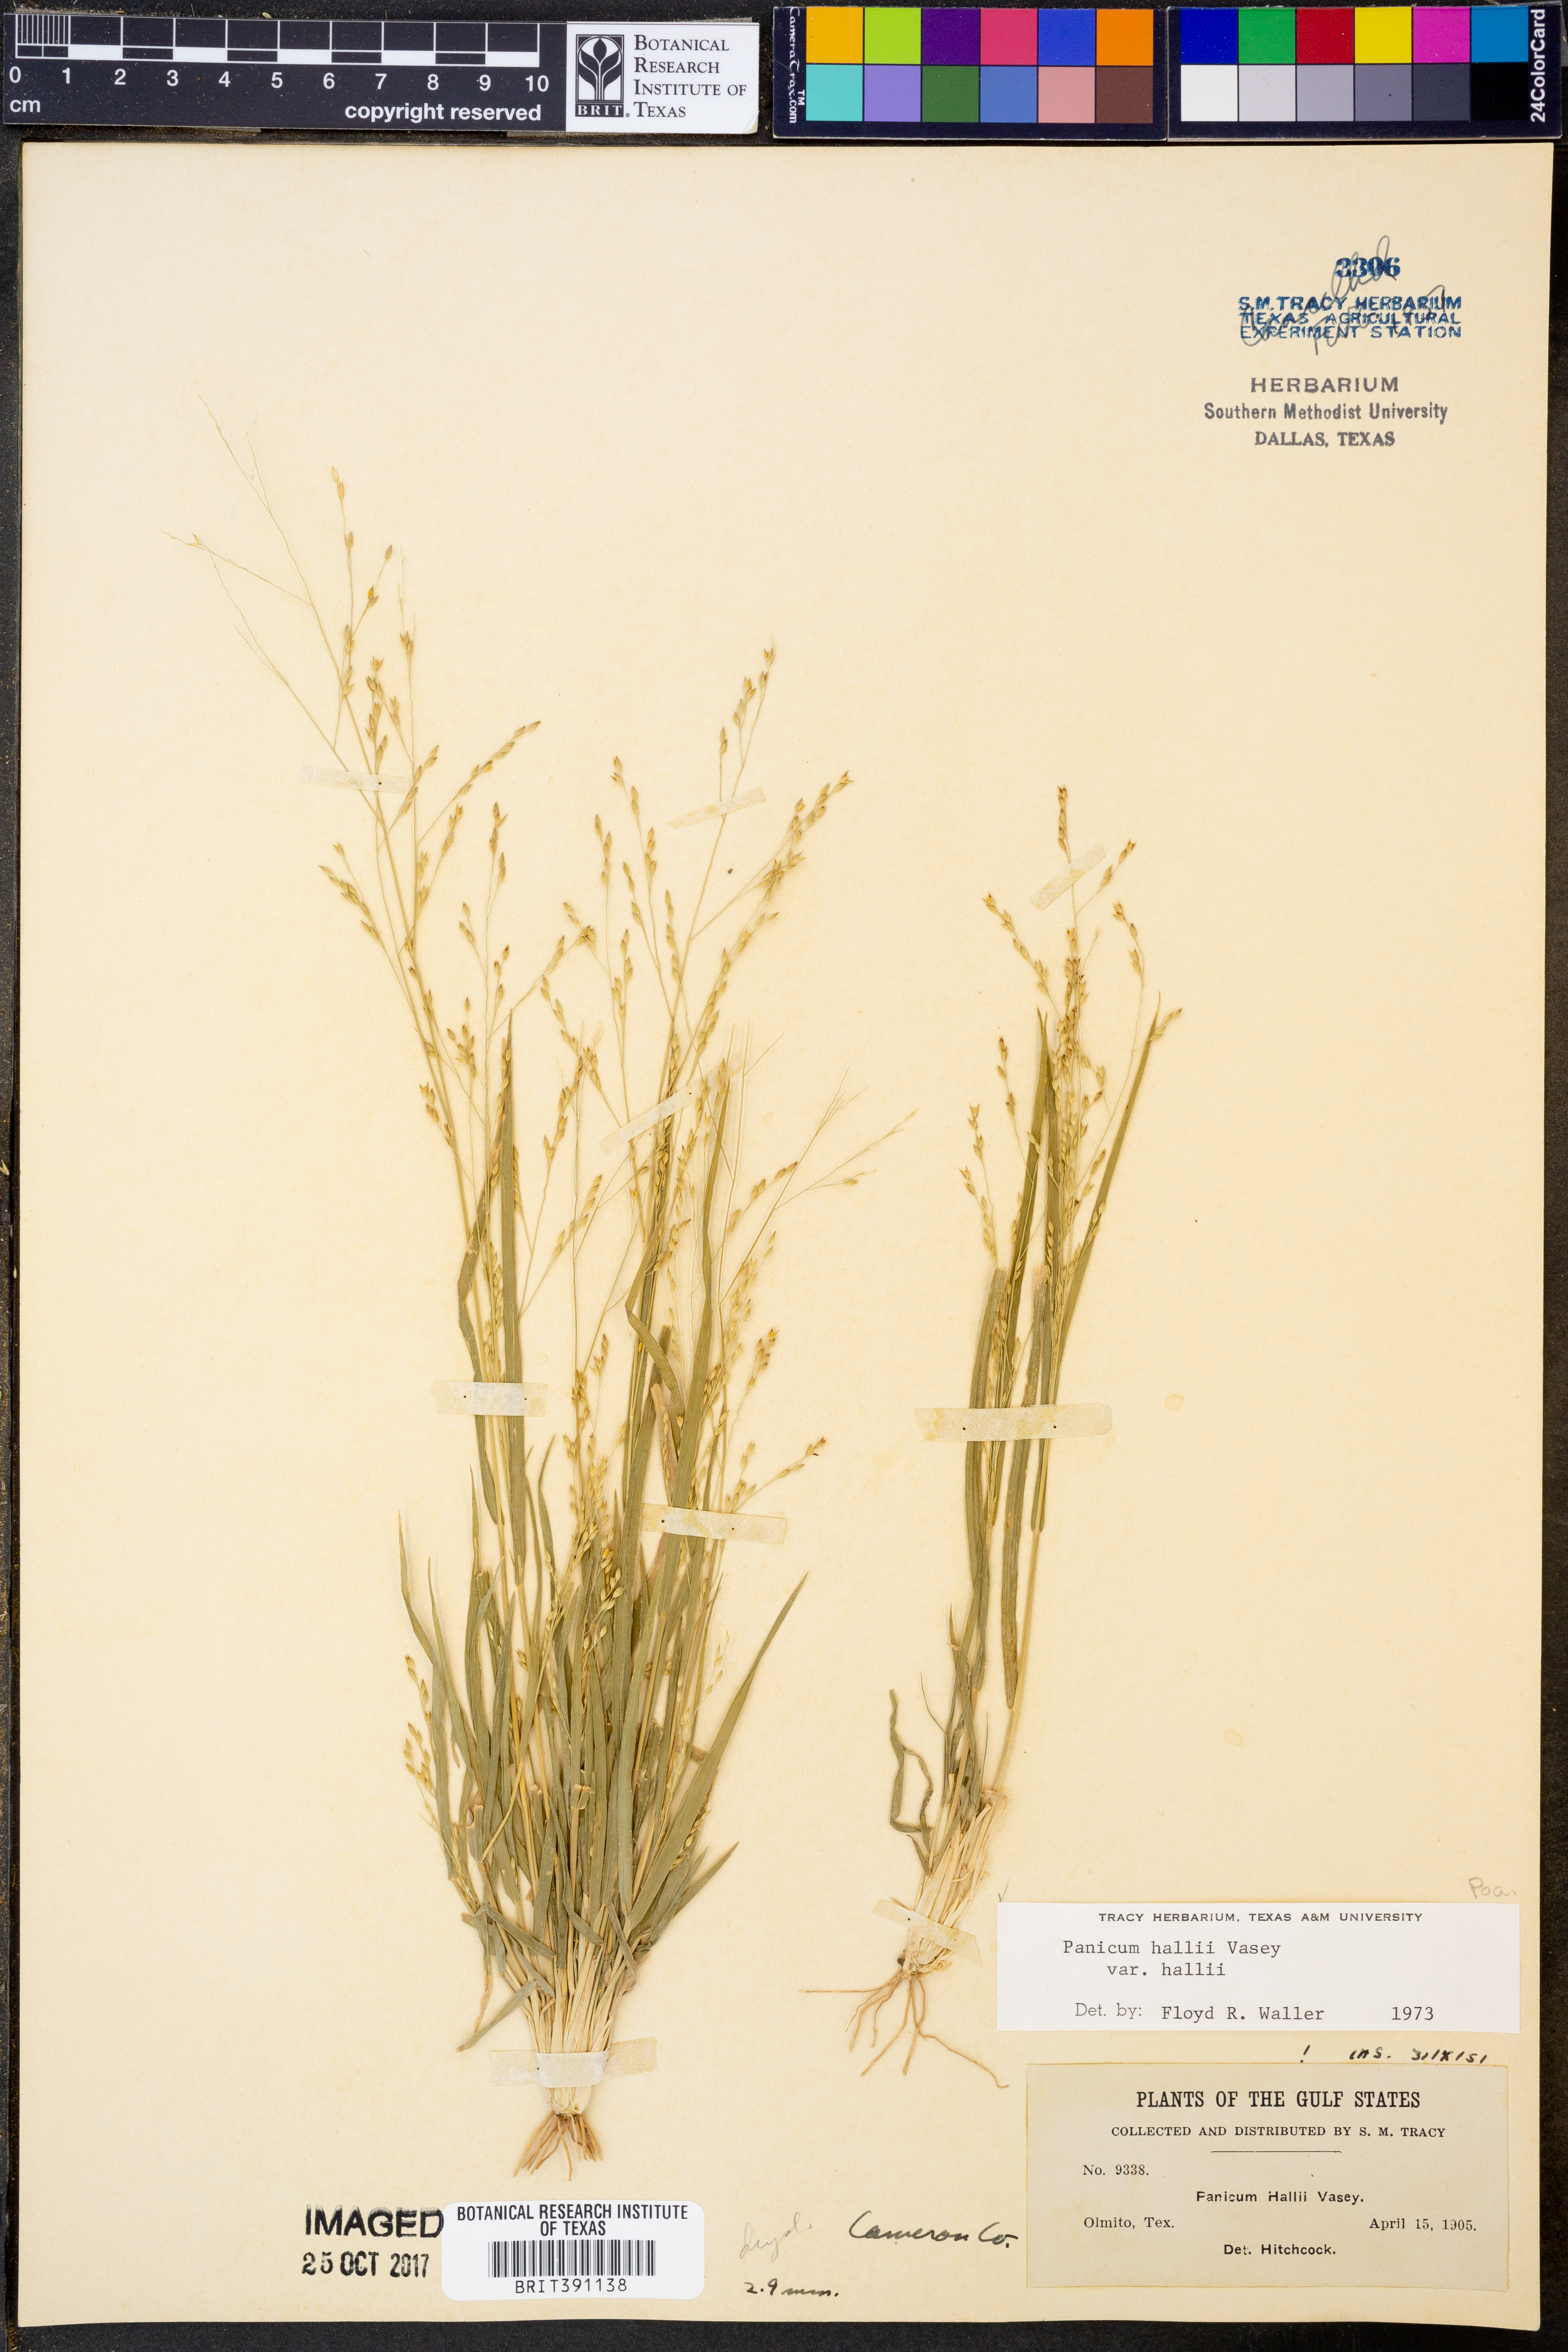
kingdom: Plantae
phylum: Tracheophyta
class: Liliopsida
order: Poales
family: Poaceae
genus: Panicum
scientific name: Panicum hallii
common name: Hall's witchgrass
